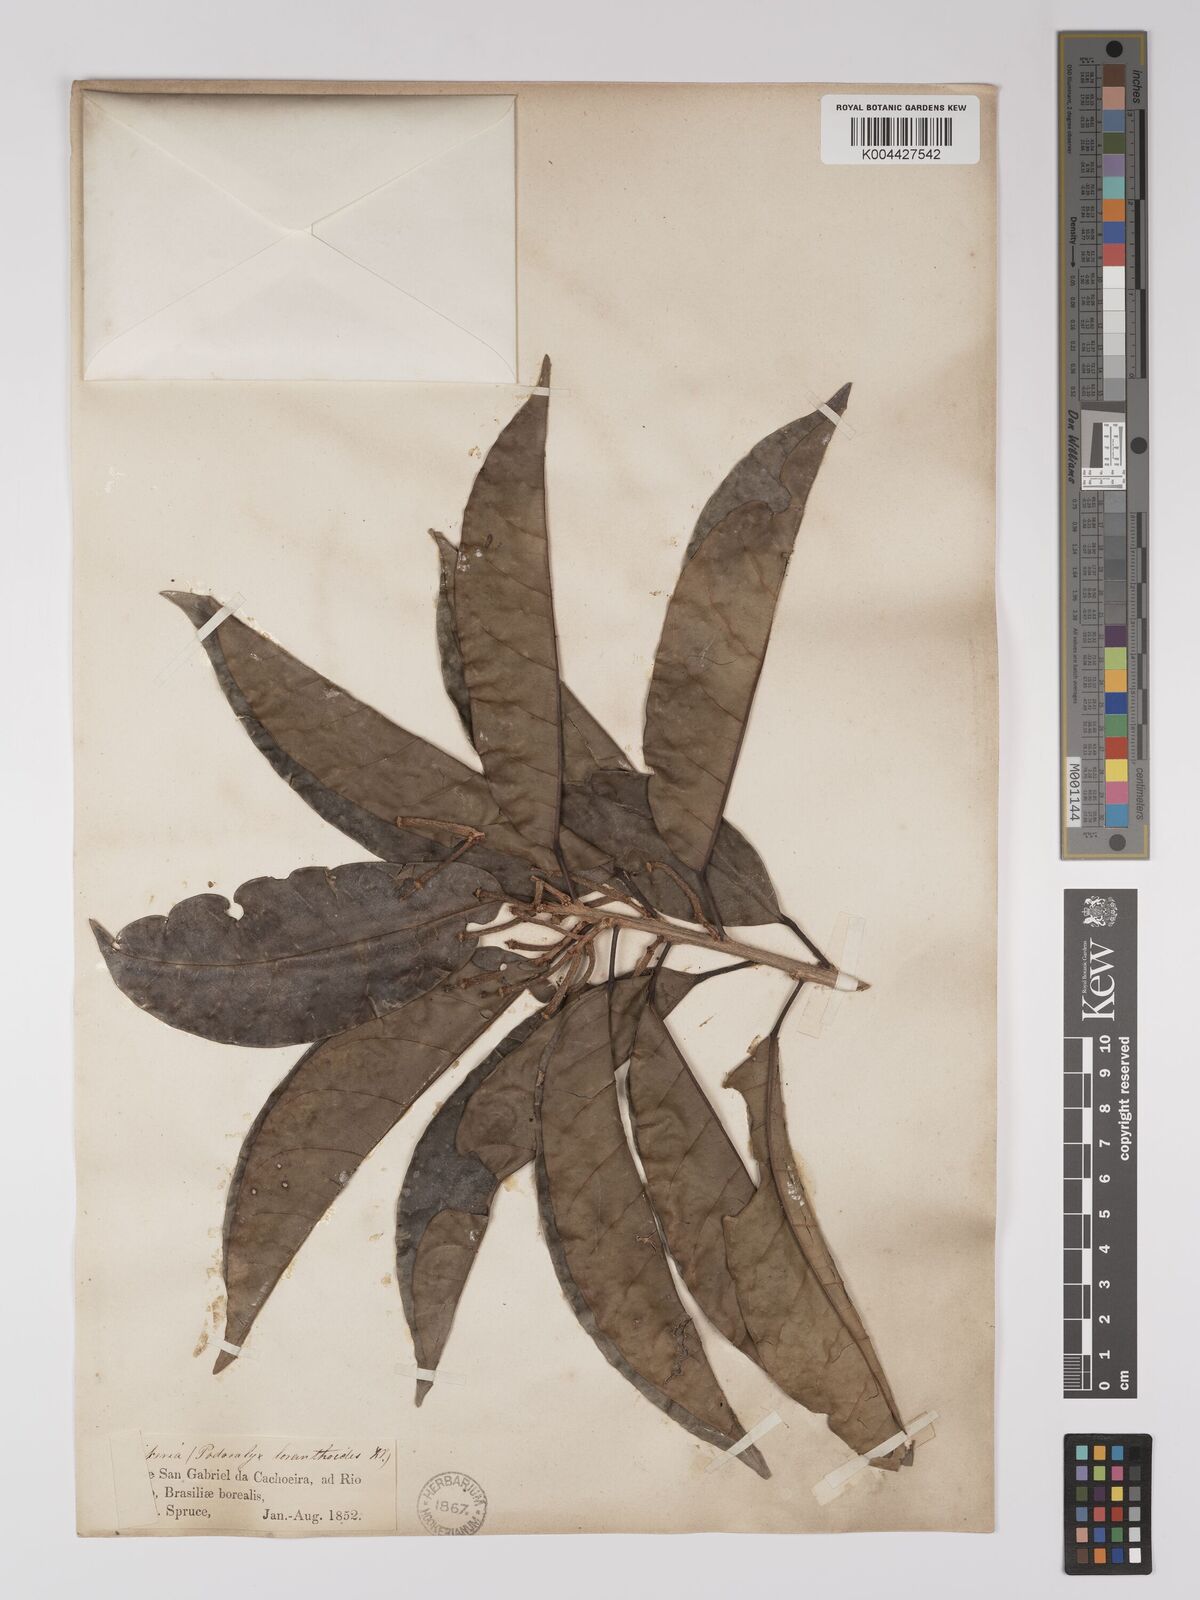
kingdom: Plantae
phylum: Tracheophyta
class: Magnoliopsida
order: Malpighiales
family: Picrodendraceae
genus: Podocalyx
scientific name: Podocalyx loranthoides
